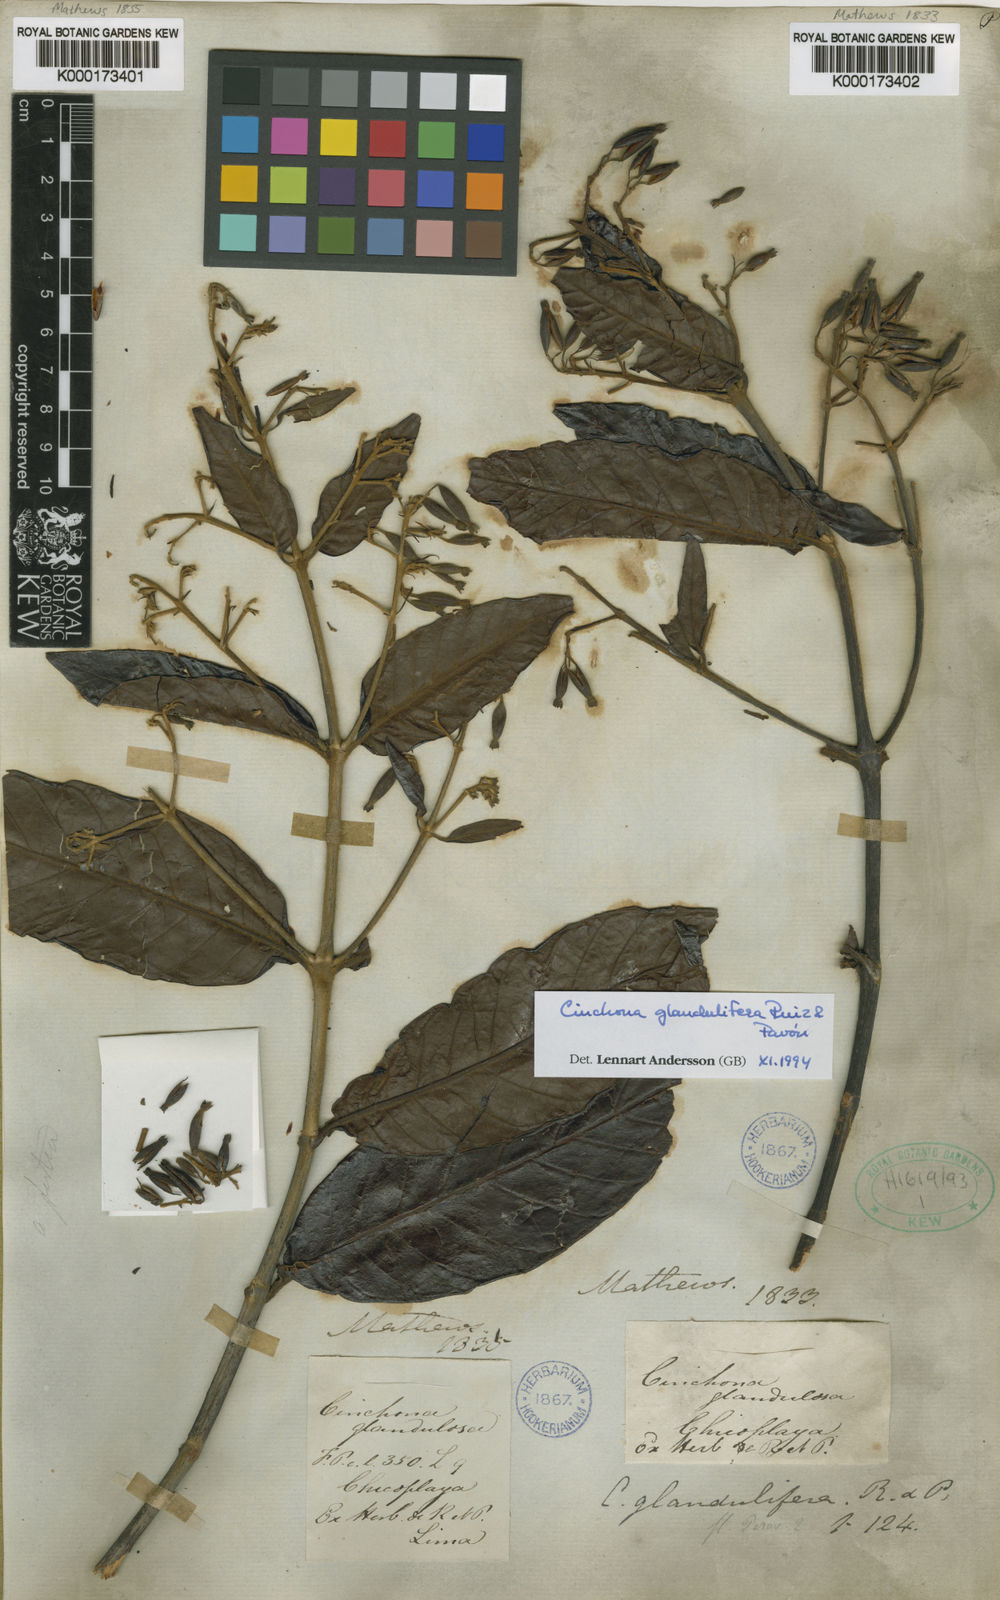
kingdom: Plantae
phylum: Tracheophyta
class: Magnoliopsida
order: Gentianales
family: Rubiaceae
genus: Cinchona
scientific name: Cinchona glandulifera
